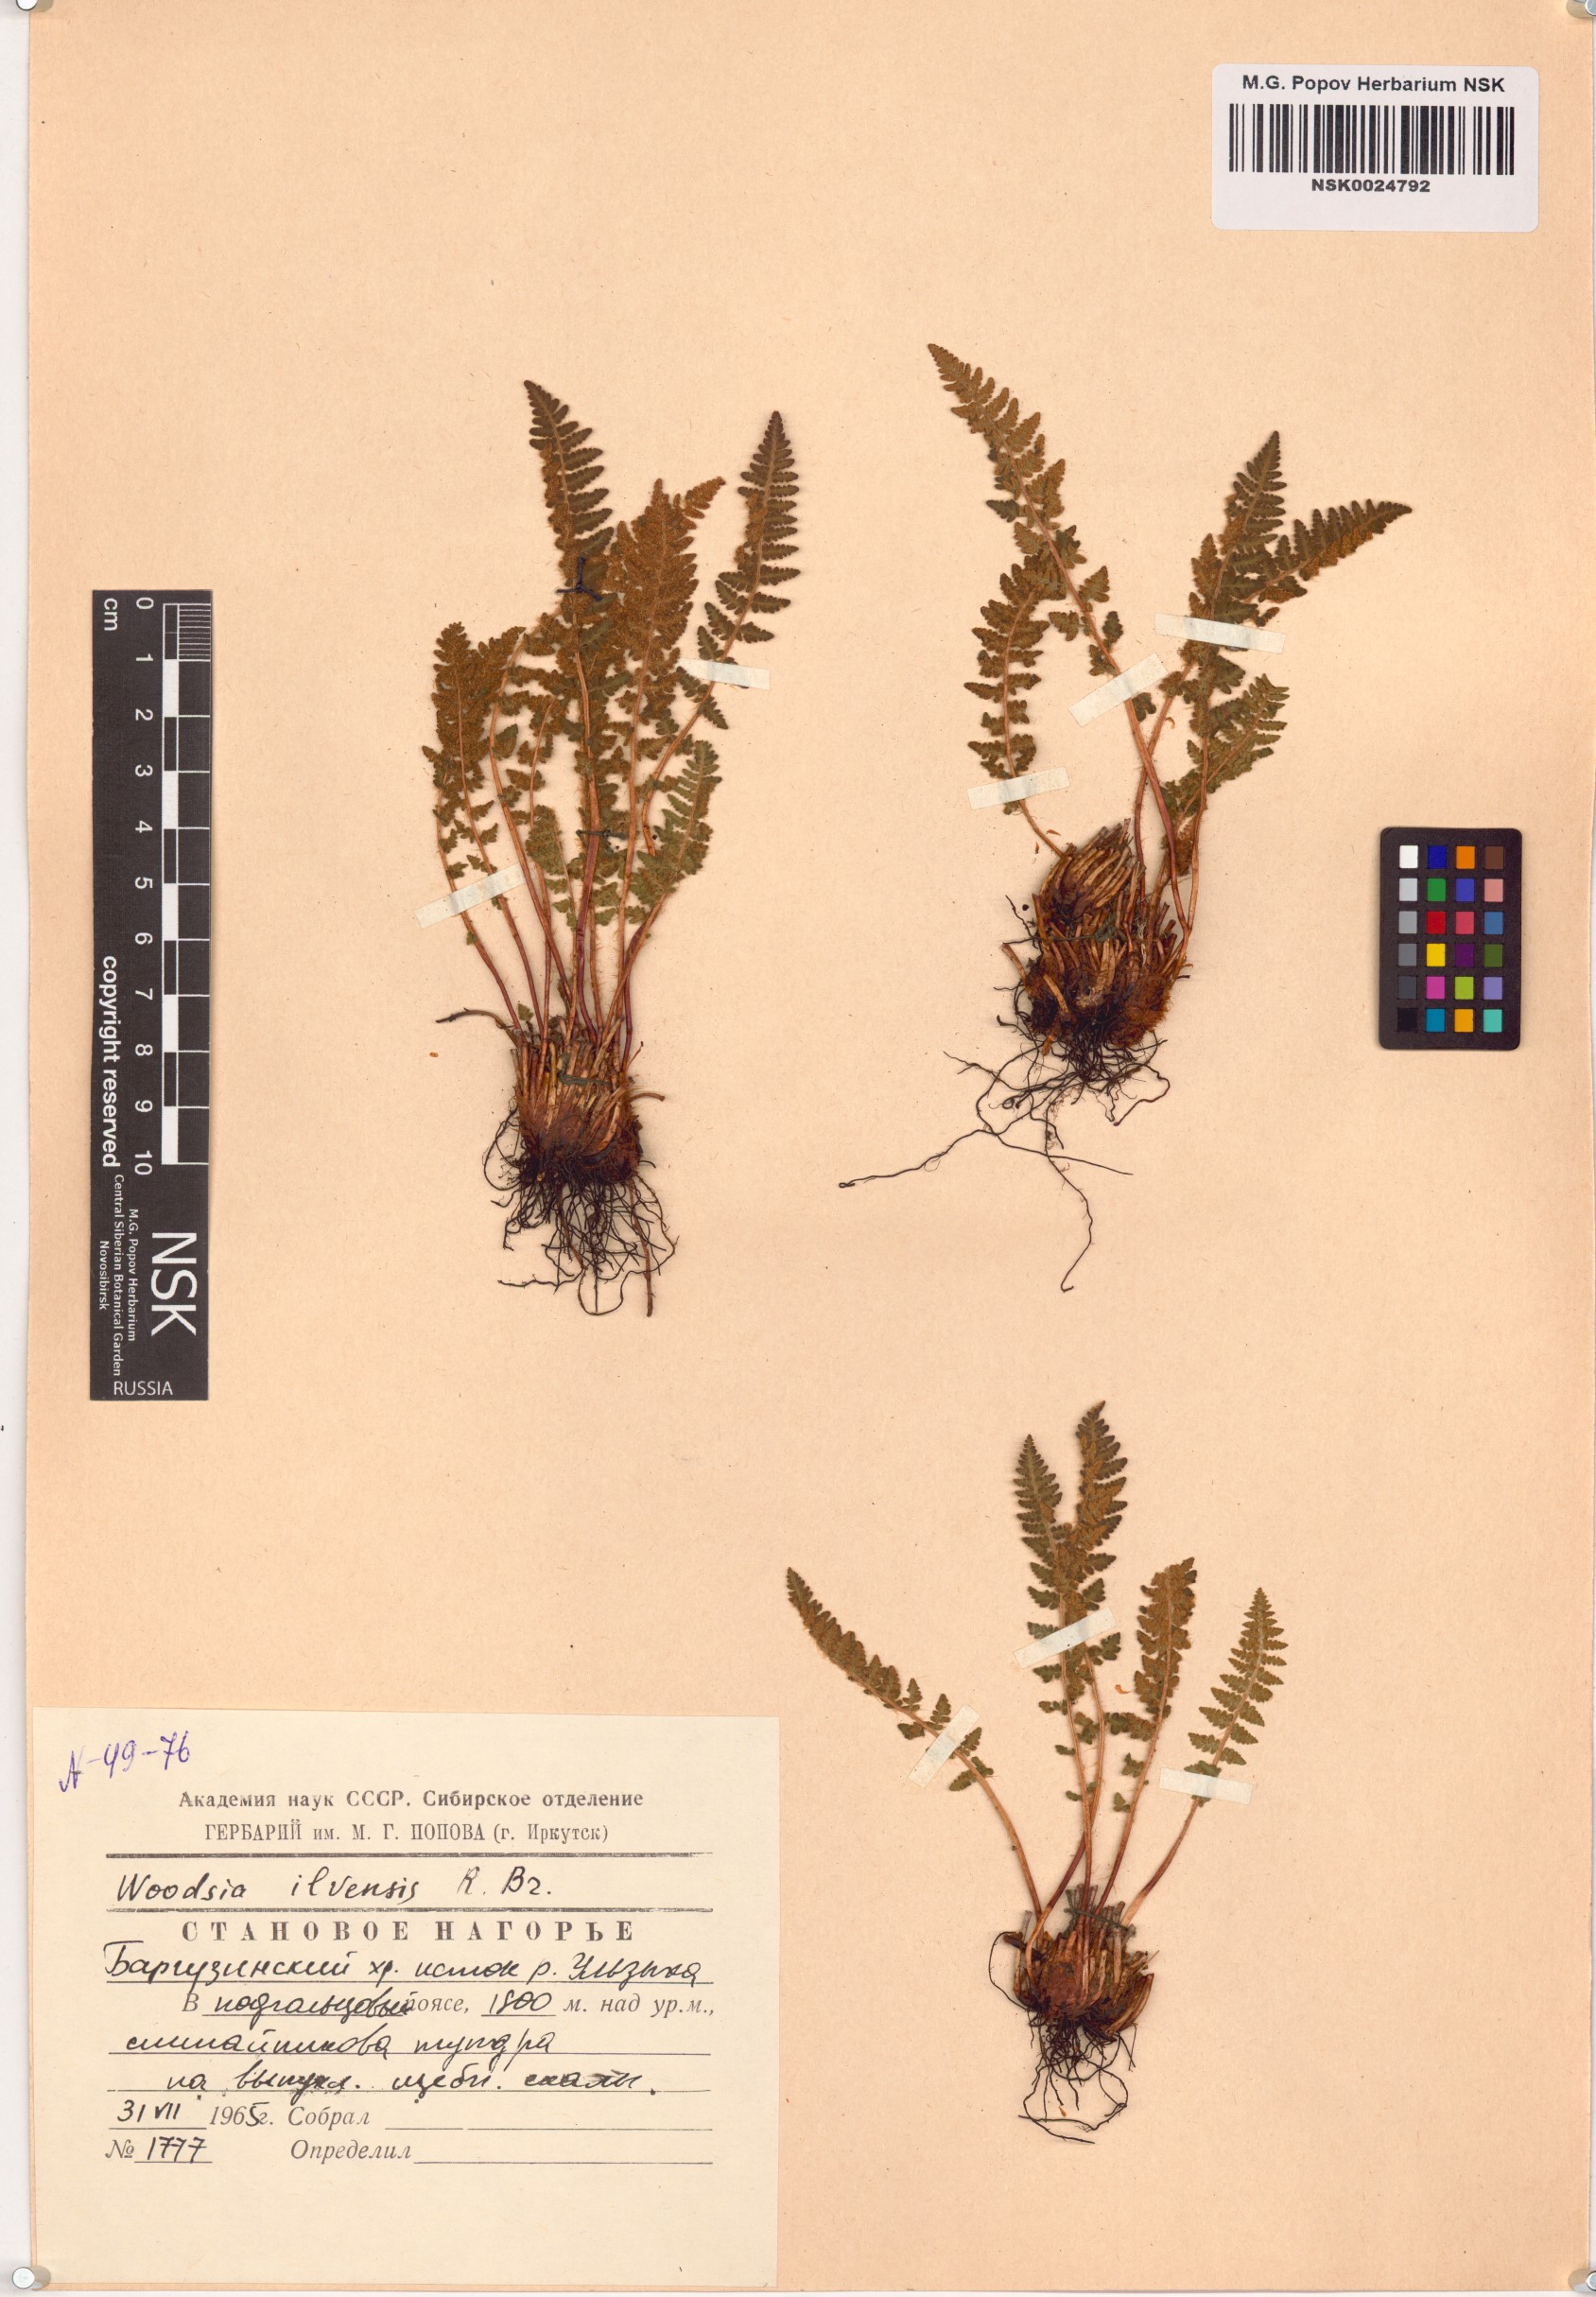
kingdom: Plantae
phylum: Tracheophyta
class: Polypodiopsida
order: Polypodiales
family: Woodsiaceae
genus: Woodsia
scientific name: Woodsia ilvensis
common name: Fragrant woodsia
